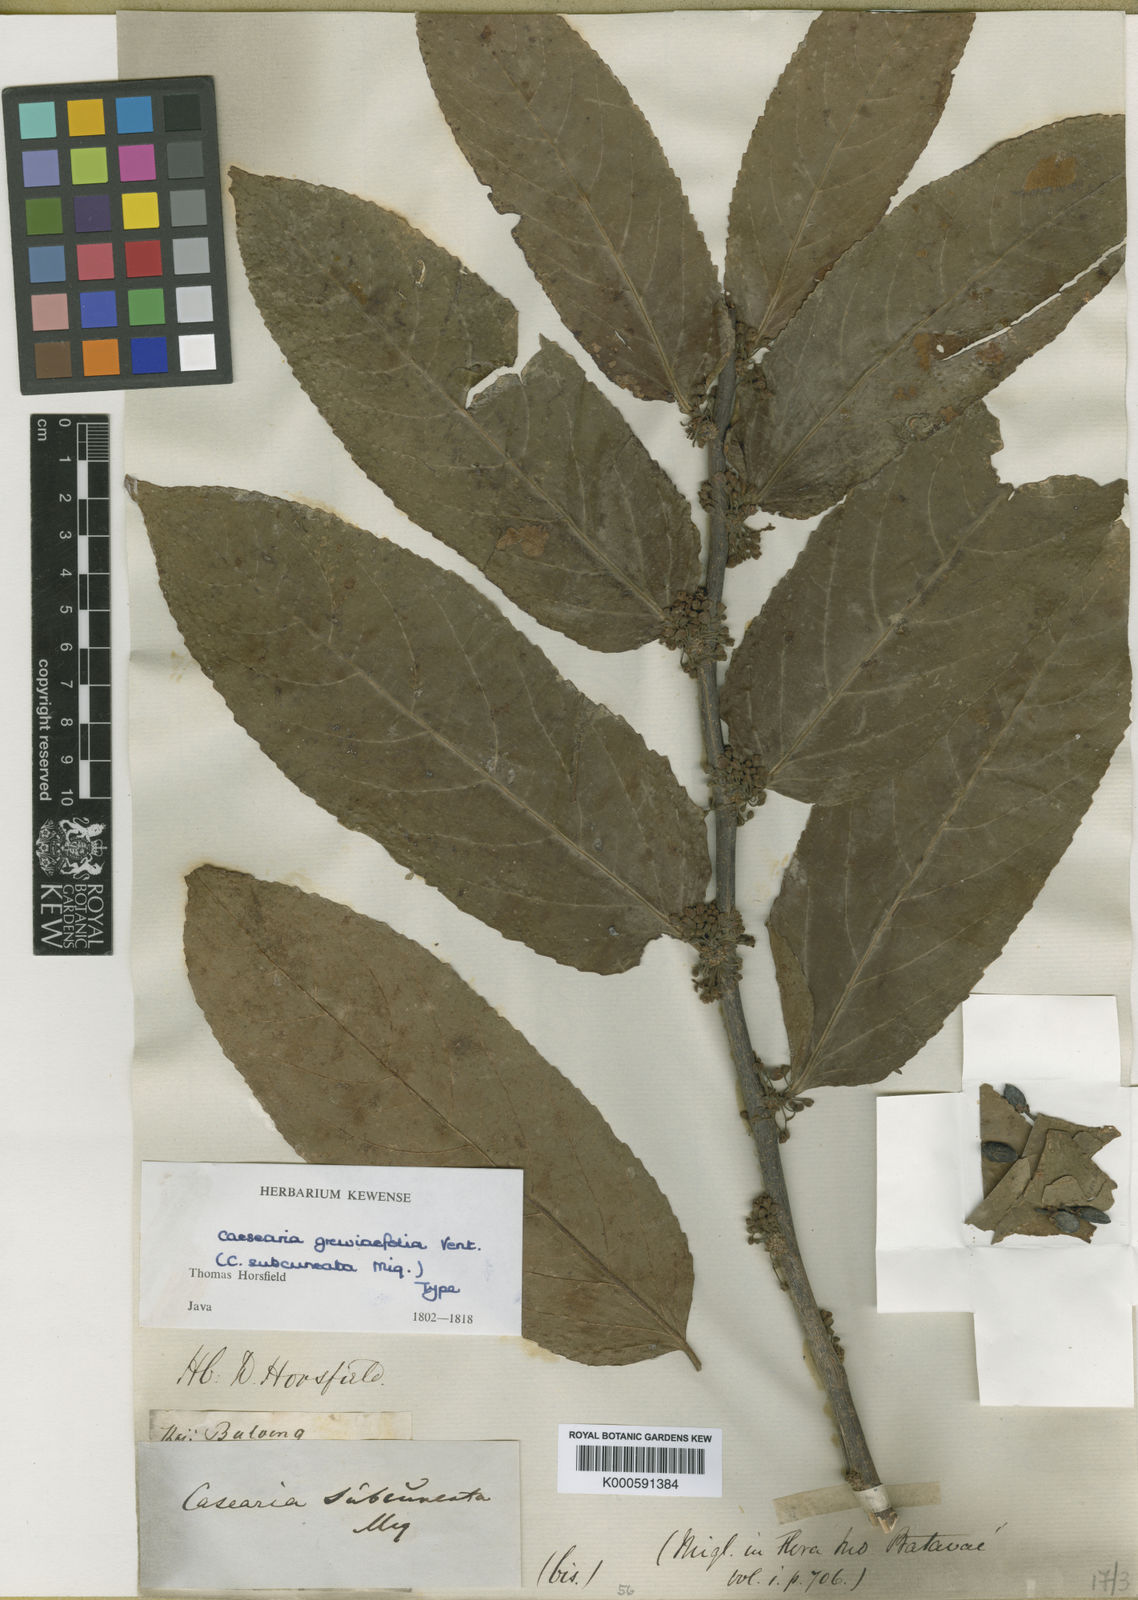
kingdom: Plantae
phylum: Tracheophyta
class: Magnoliopsida
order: Malpighiales
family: Salicaceae
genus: Casearia
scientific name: Casearia grewiifolia
